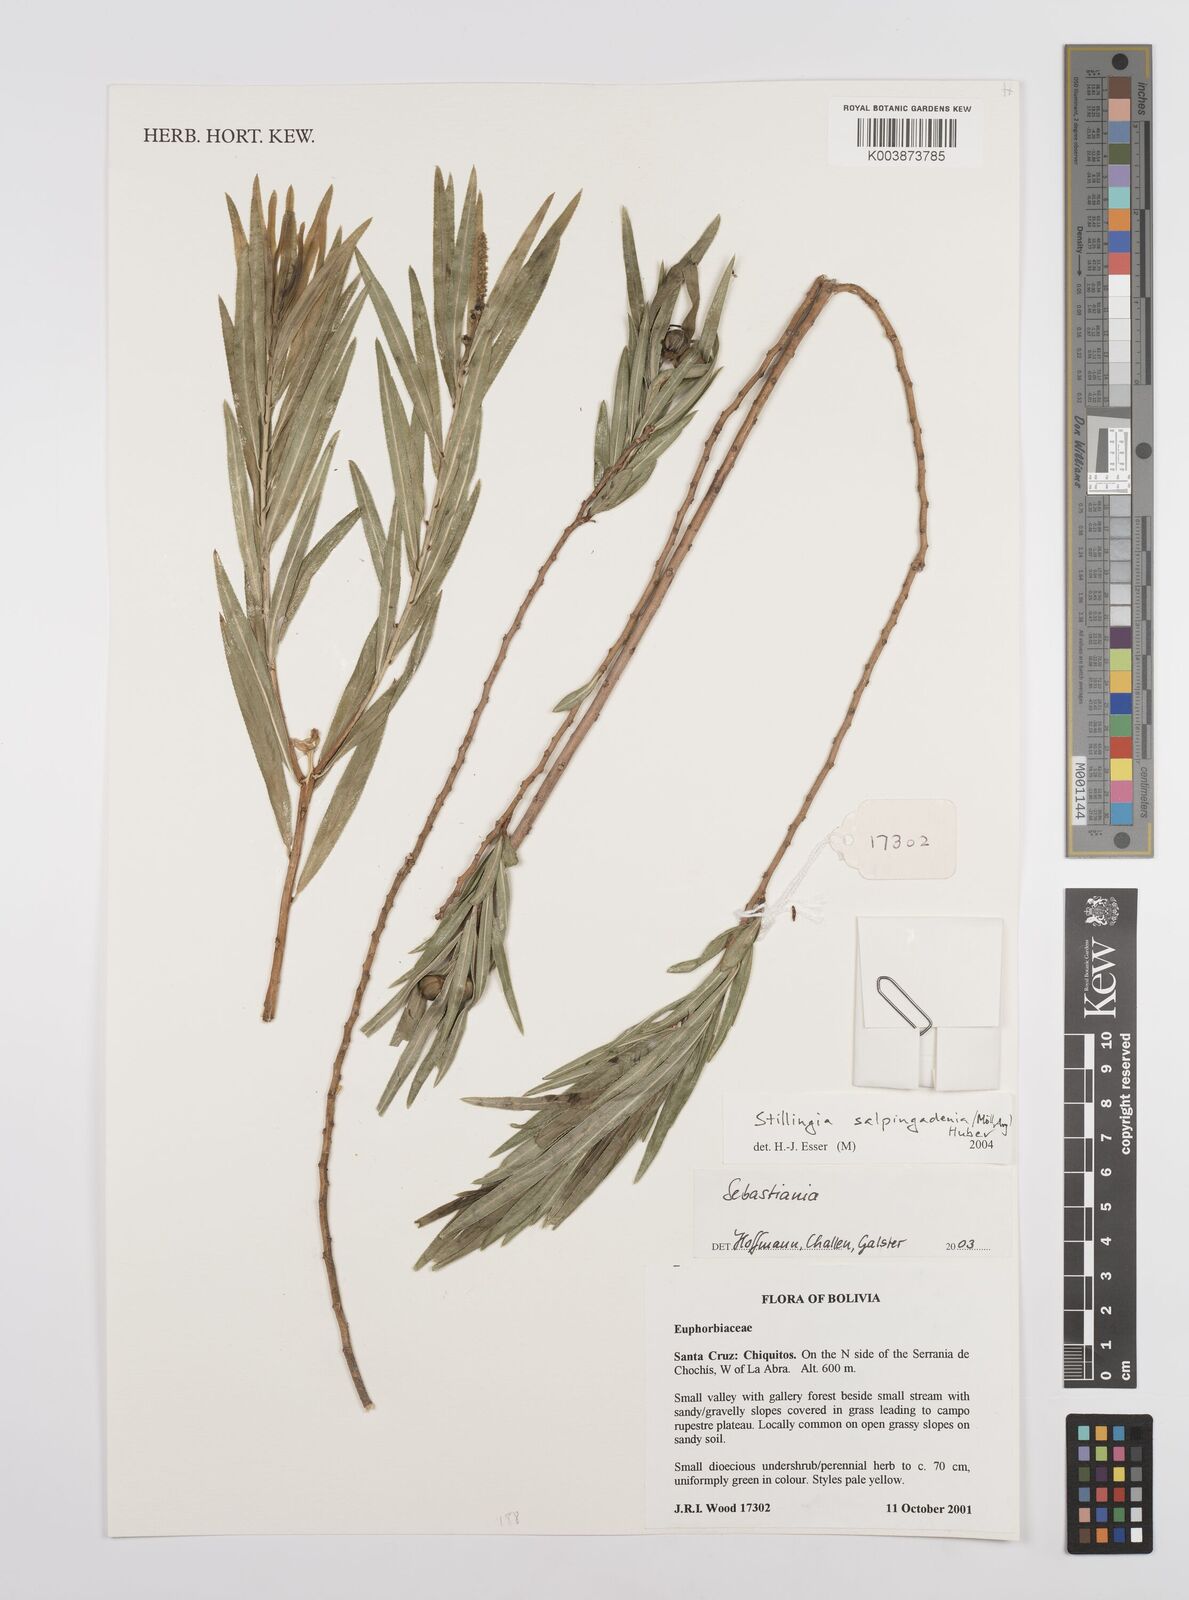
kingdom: Plantae
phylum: Tracheophyta
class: Magnoliopsida
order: Malpighiales
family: Euphorbiaceae
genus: Stillingia
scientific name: Stillingia salpingadenia
